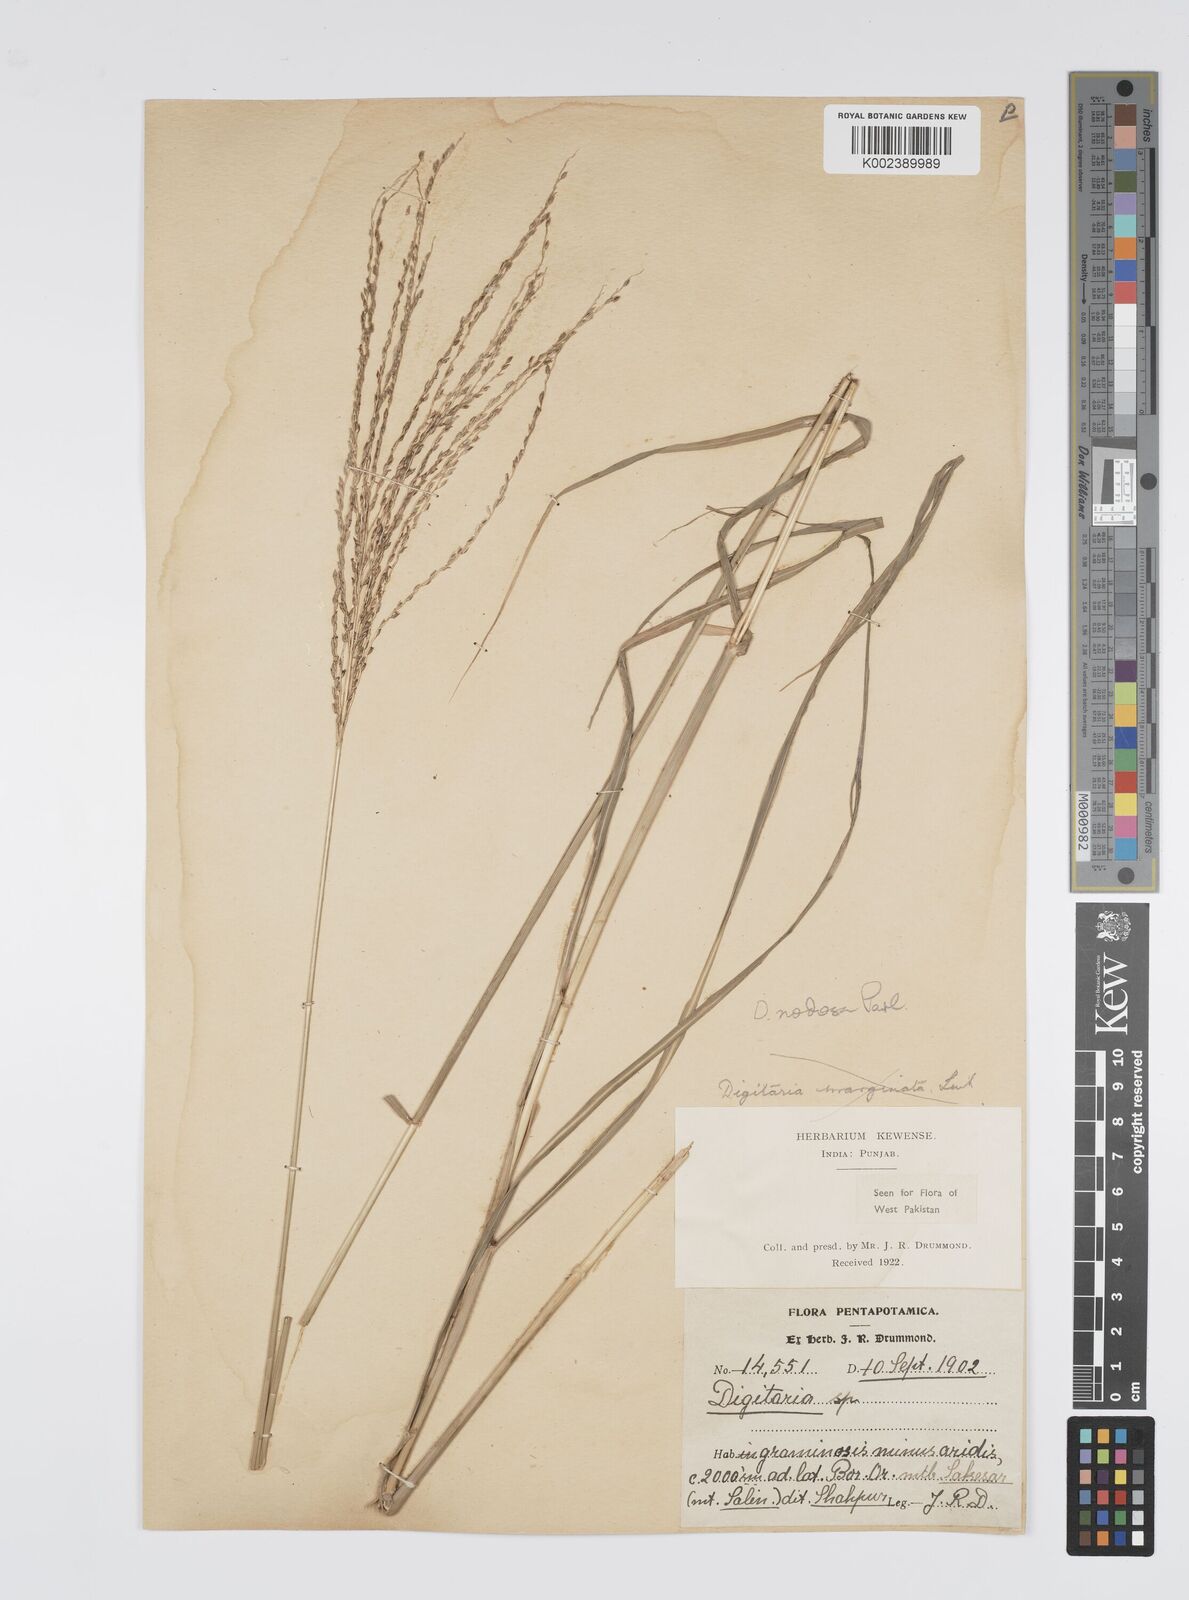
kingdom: Plantae
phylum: Tracheophyta
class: Liliopsida
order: Poales
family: Poaceae
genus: Digitaria
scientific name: Digitaria nodosa
